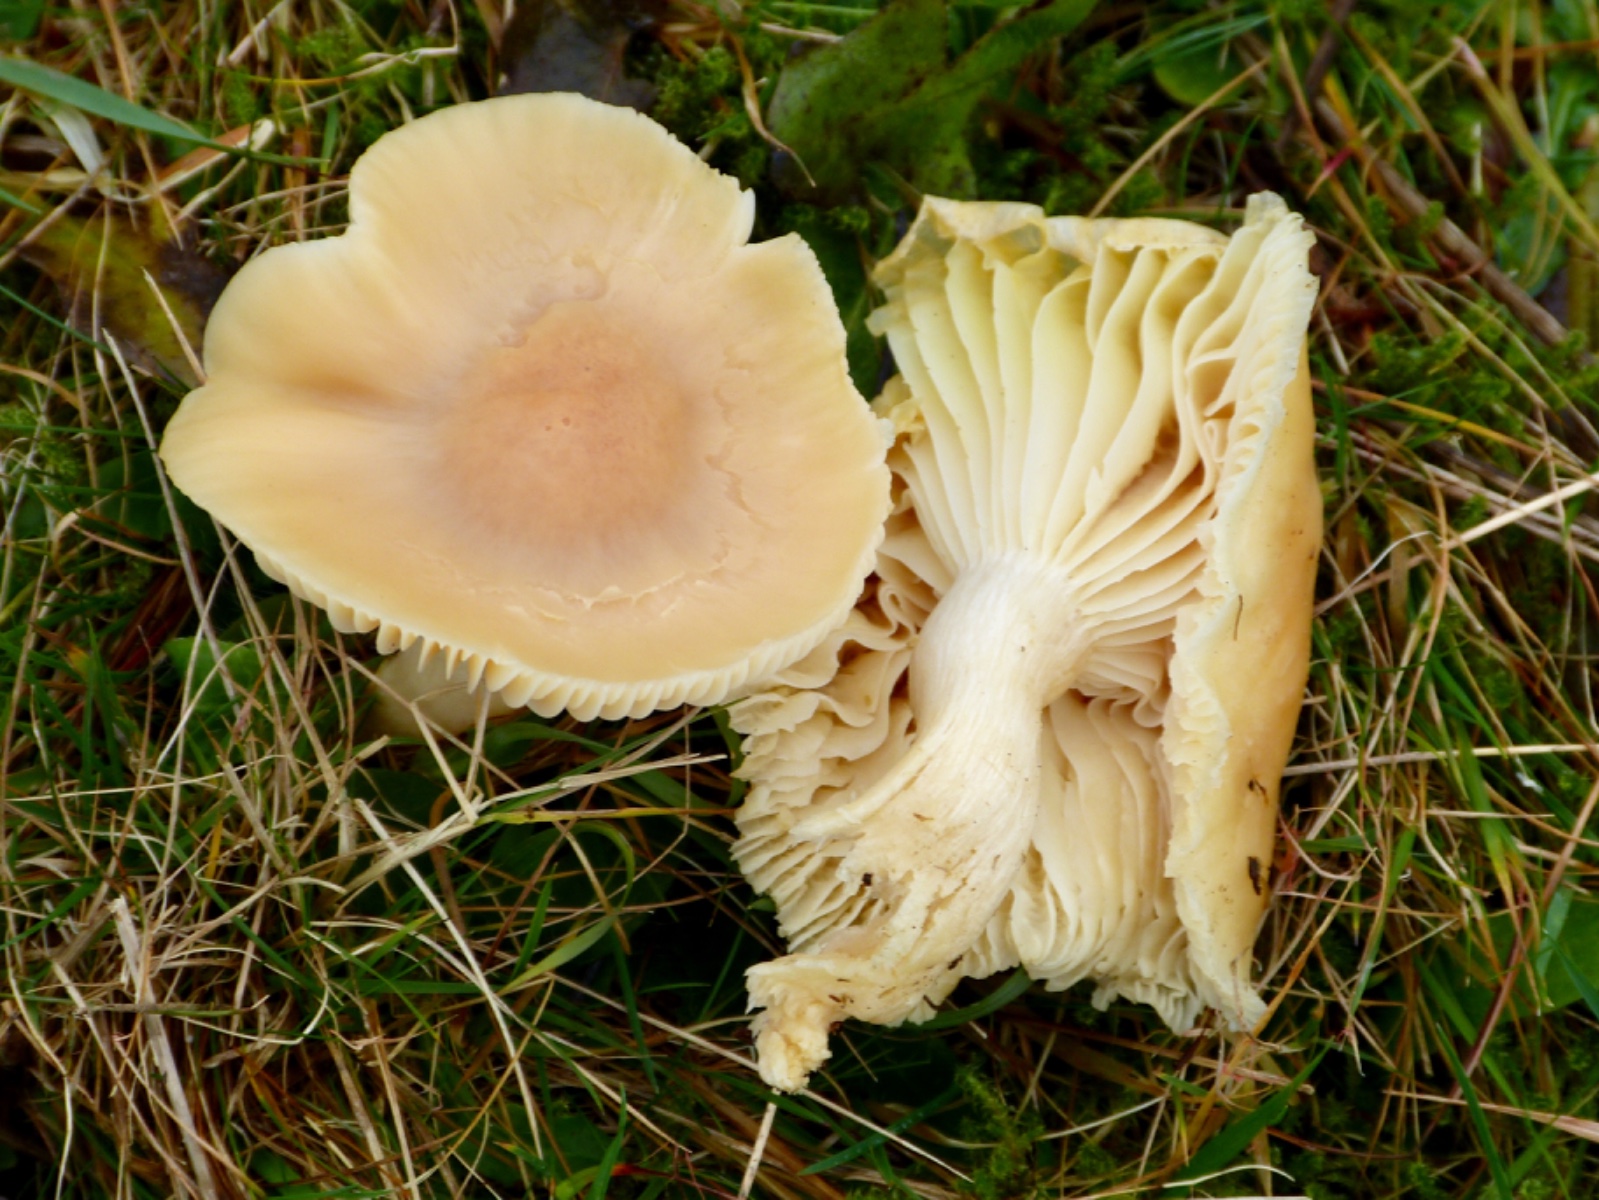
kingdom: Fungi
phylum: Basidiomycota
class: Agaricomycetes
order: Agaricales
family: Hygrophoraceae
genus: Cuphophyllus
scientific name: Cuphophyllus pratensis
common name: eng-vokshat
